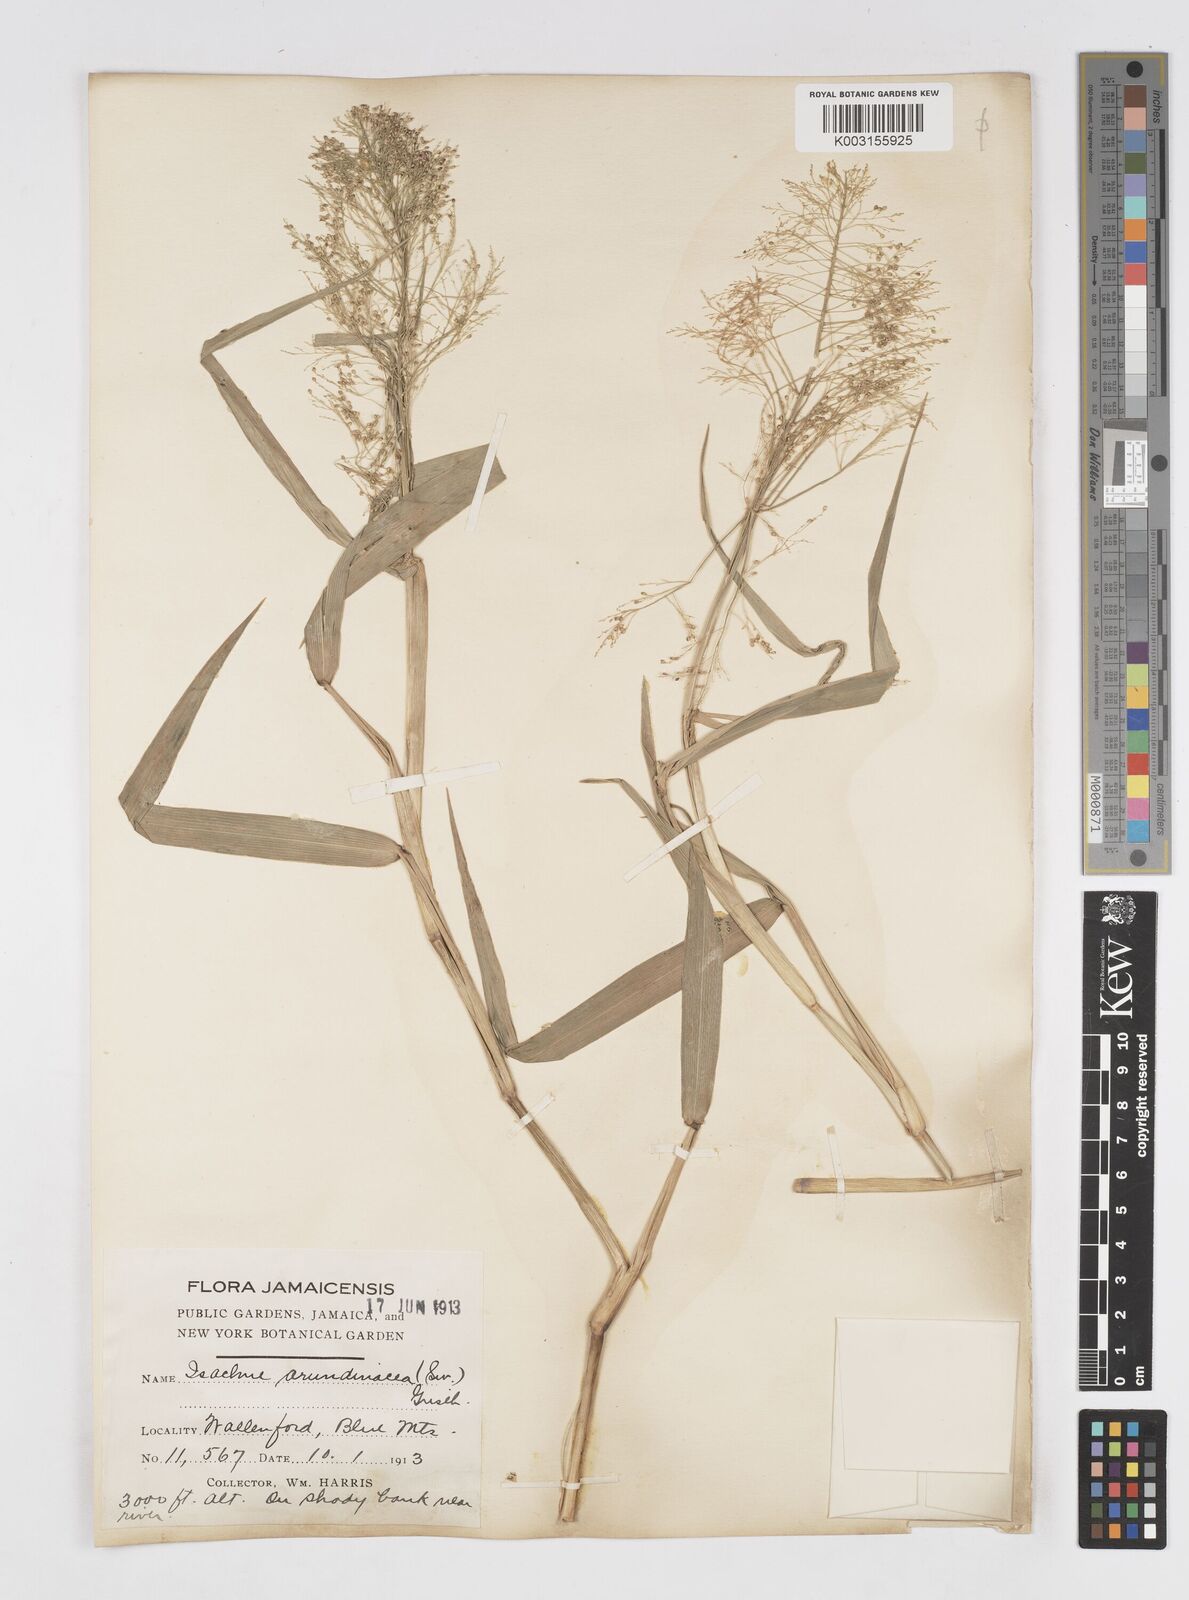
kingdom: Plantae
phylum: Tracheophyta
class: Liliopsida
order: Poales
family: Poaceae
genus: Isachne
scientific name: Isachne arundinacea
